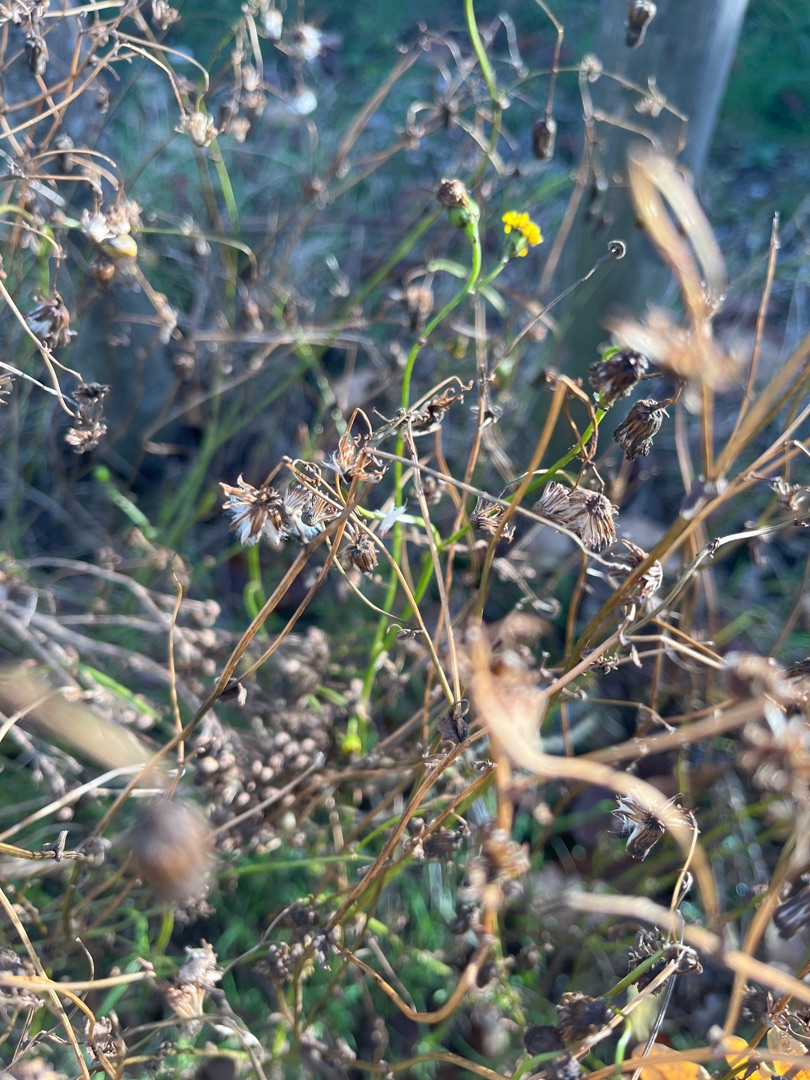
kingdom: Plantae
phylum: Tracheophyta
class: Magnoliopsida
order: Asterales
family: Asteraceae
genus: Senecio
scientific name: Senecio inaequidens
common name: Smalbladet brandbæger
